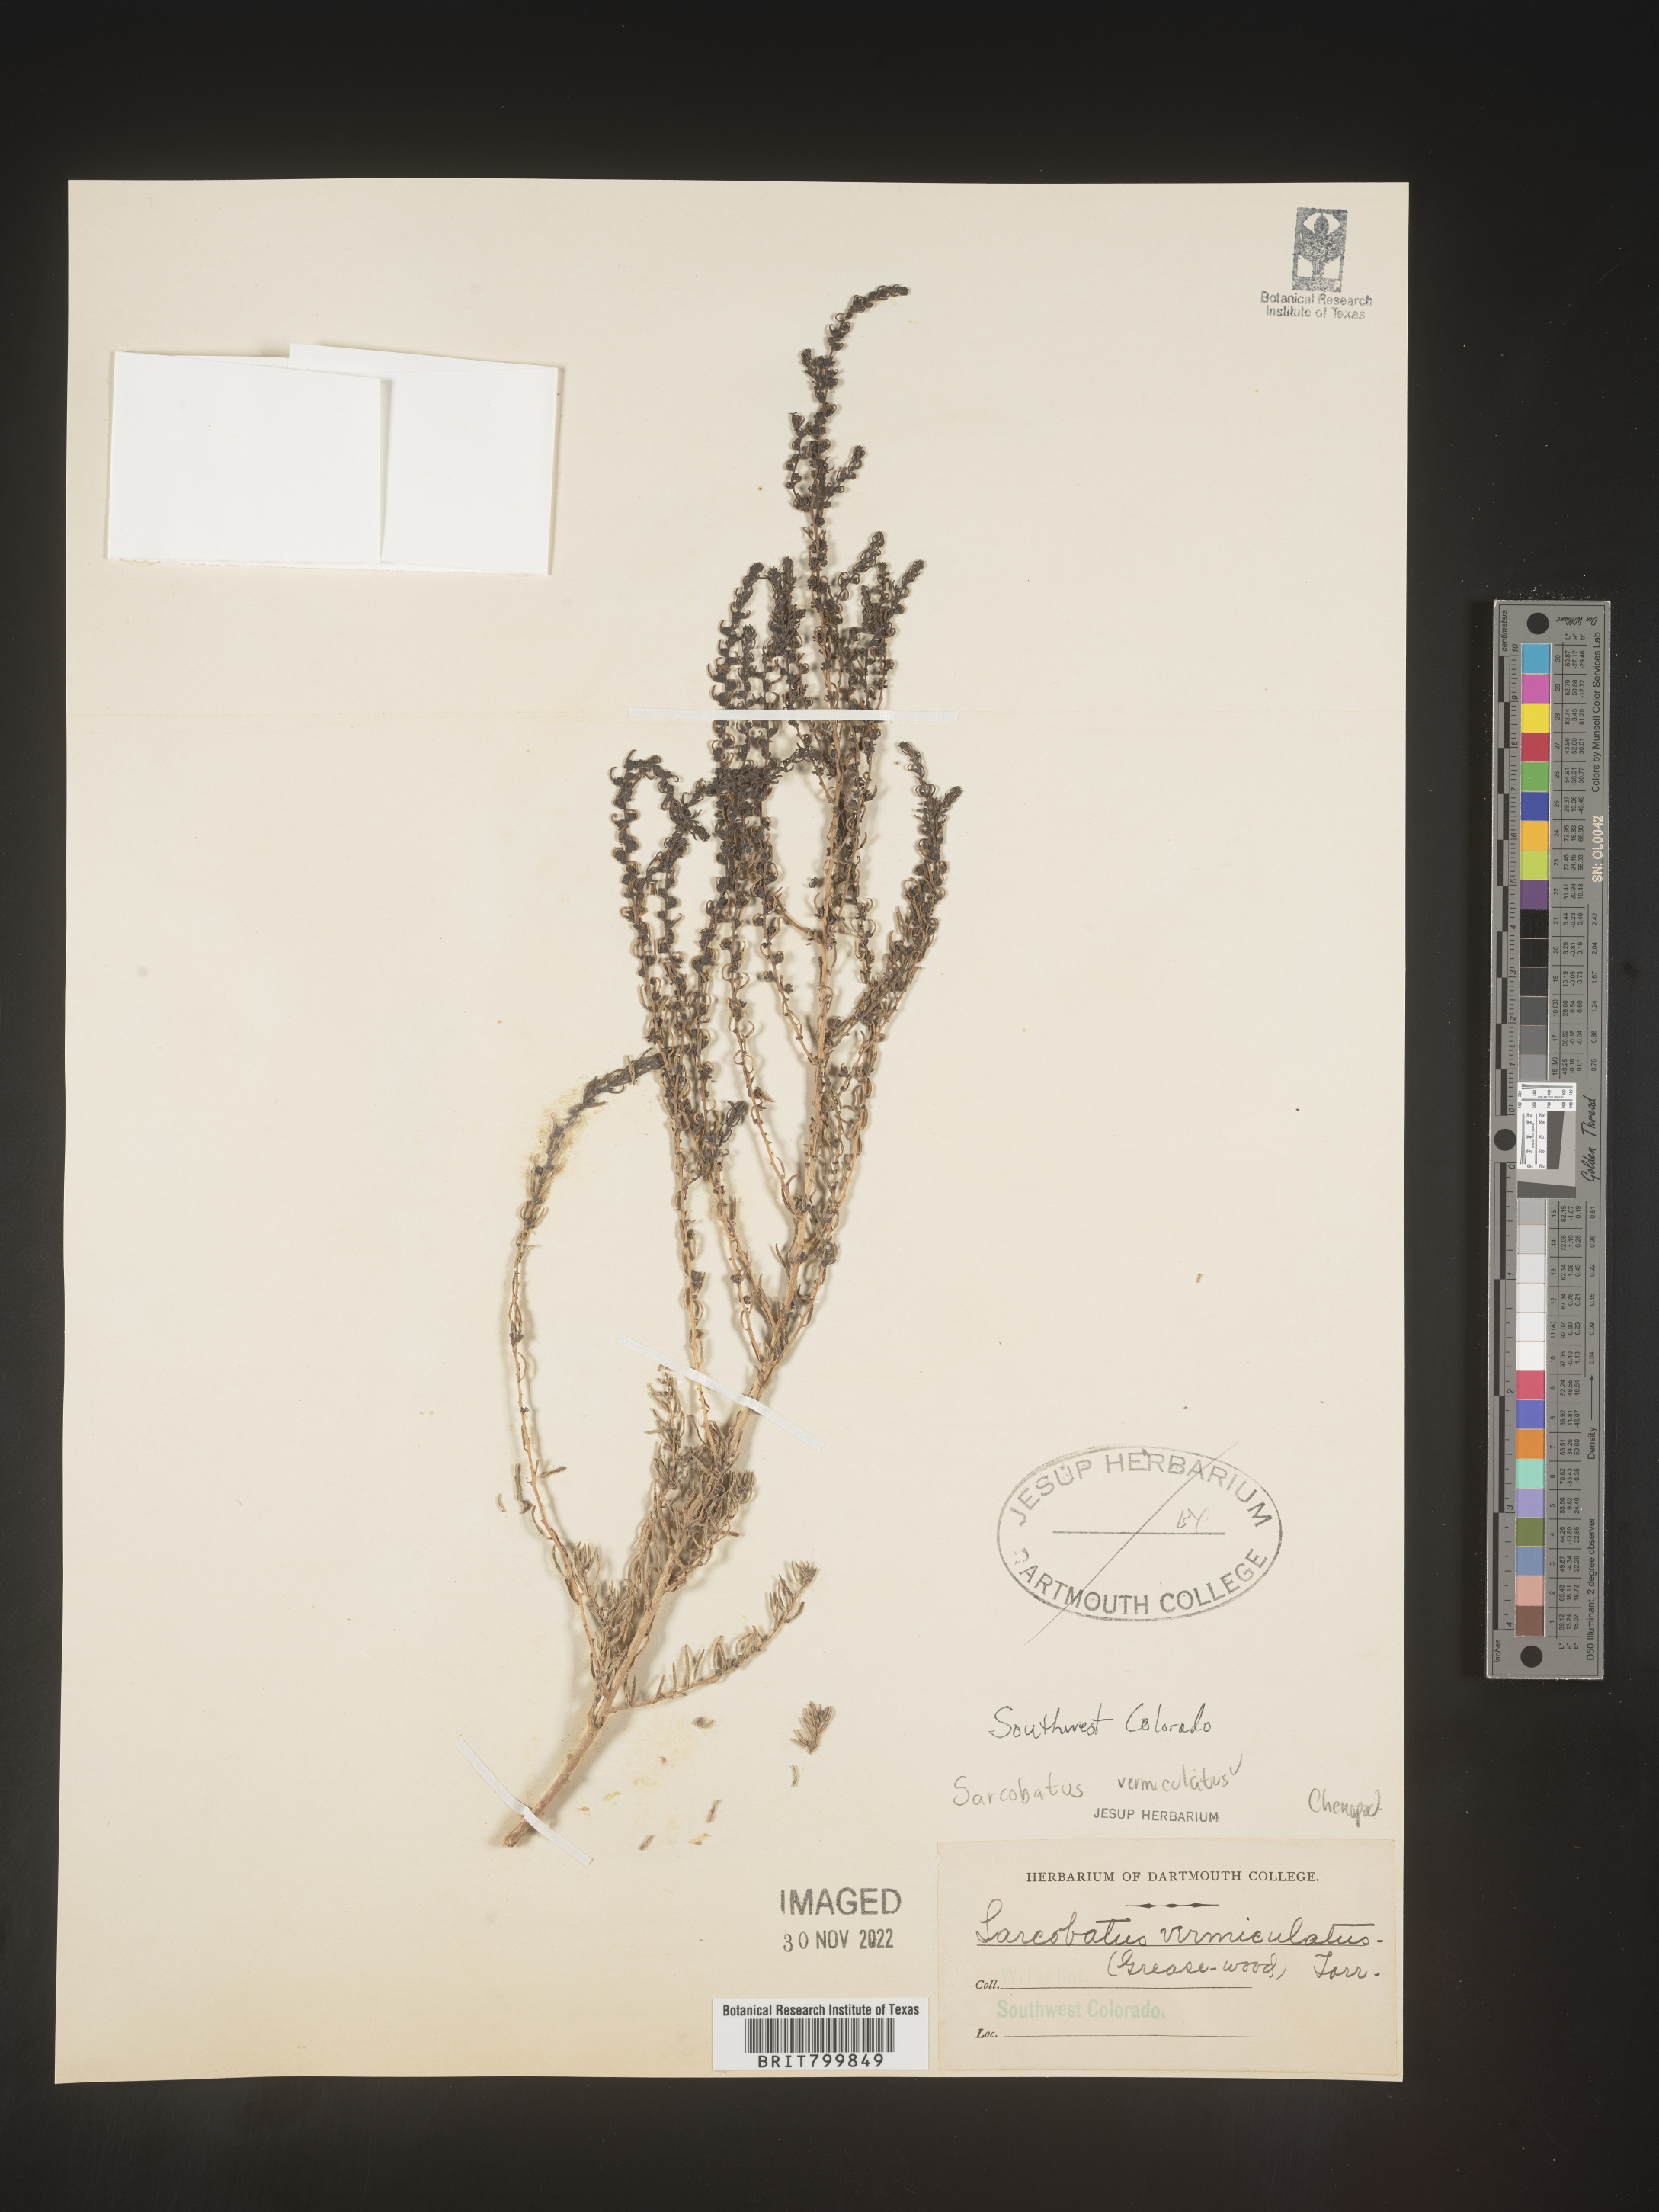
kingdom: Plantae
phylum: Tracheophyta
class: Magnoliopsida
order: Caryophyllales
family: Sarcobataceae
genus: Sarcobatus
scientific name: Sarcobatus vermiculatus
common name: Greasewood
